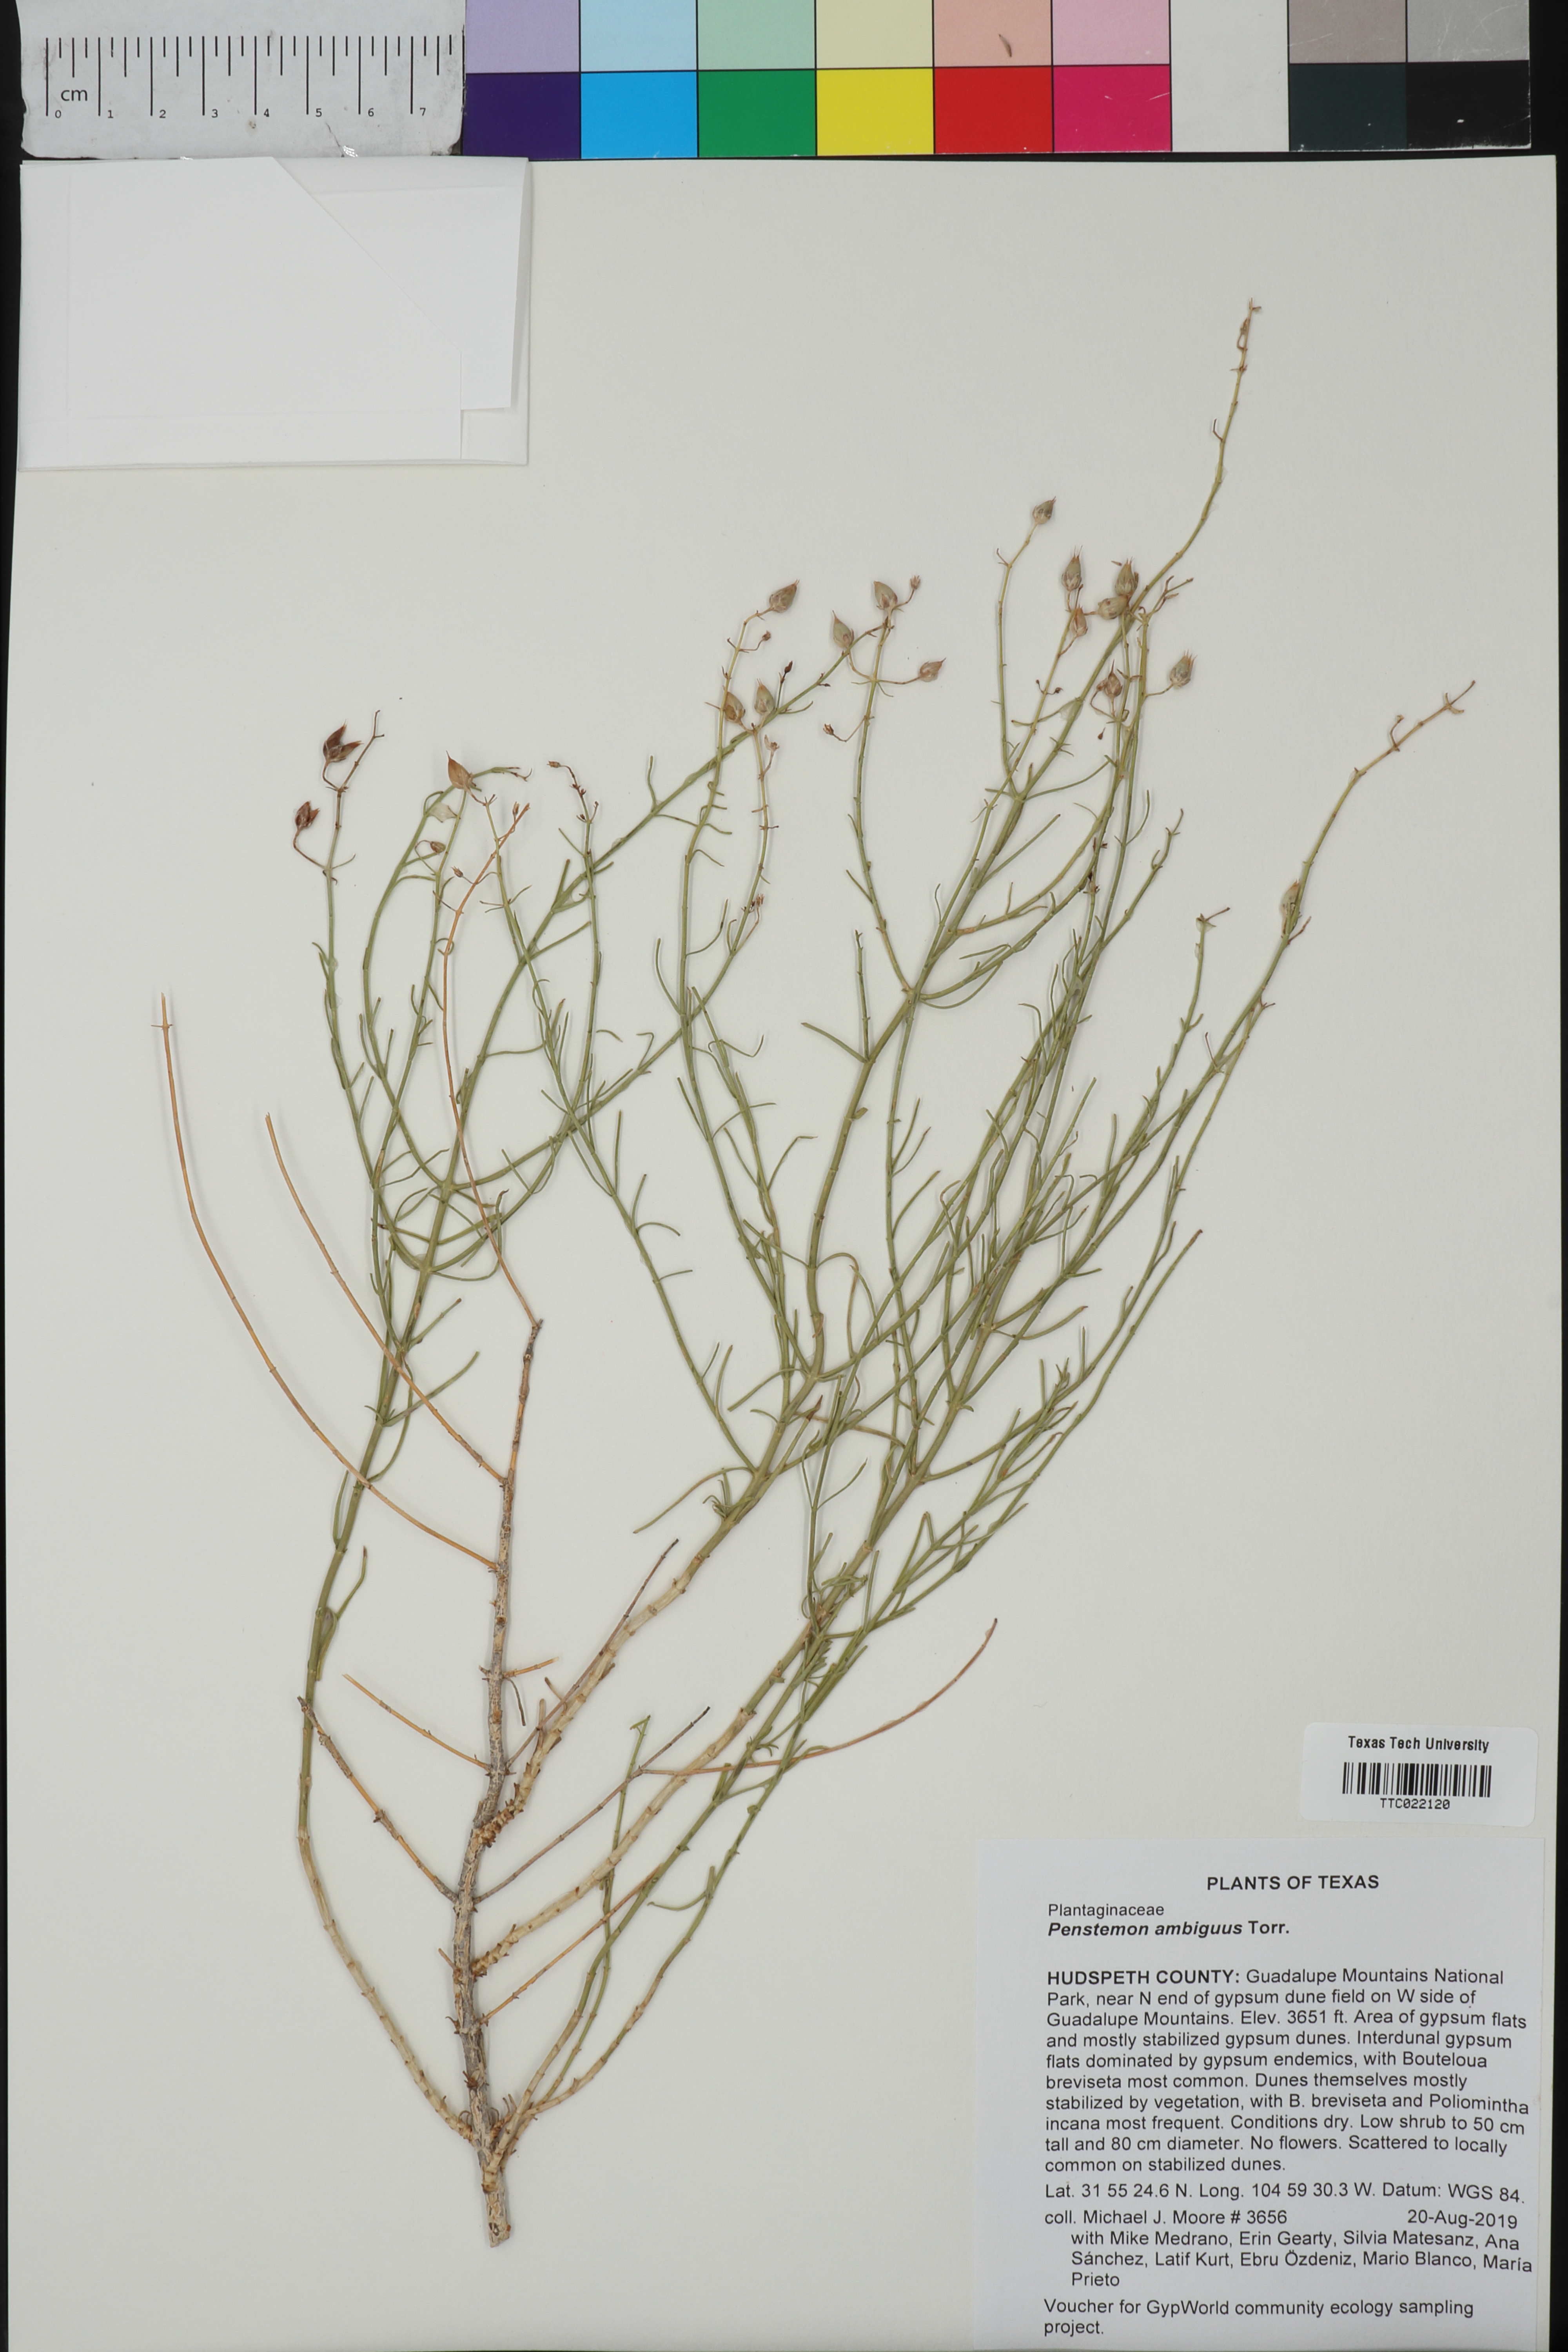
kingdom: Plantae
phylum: Tracheophyta
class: Magnoliopsida
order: Lamiales
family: Plantaginaceae
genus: Penstemon
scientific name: Penstemon ambiguus
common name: Bush penstemon
